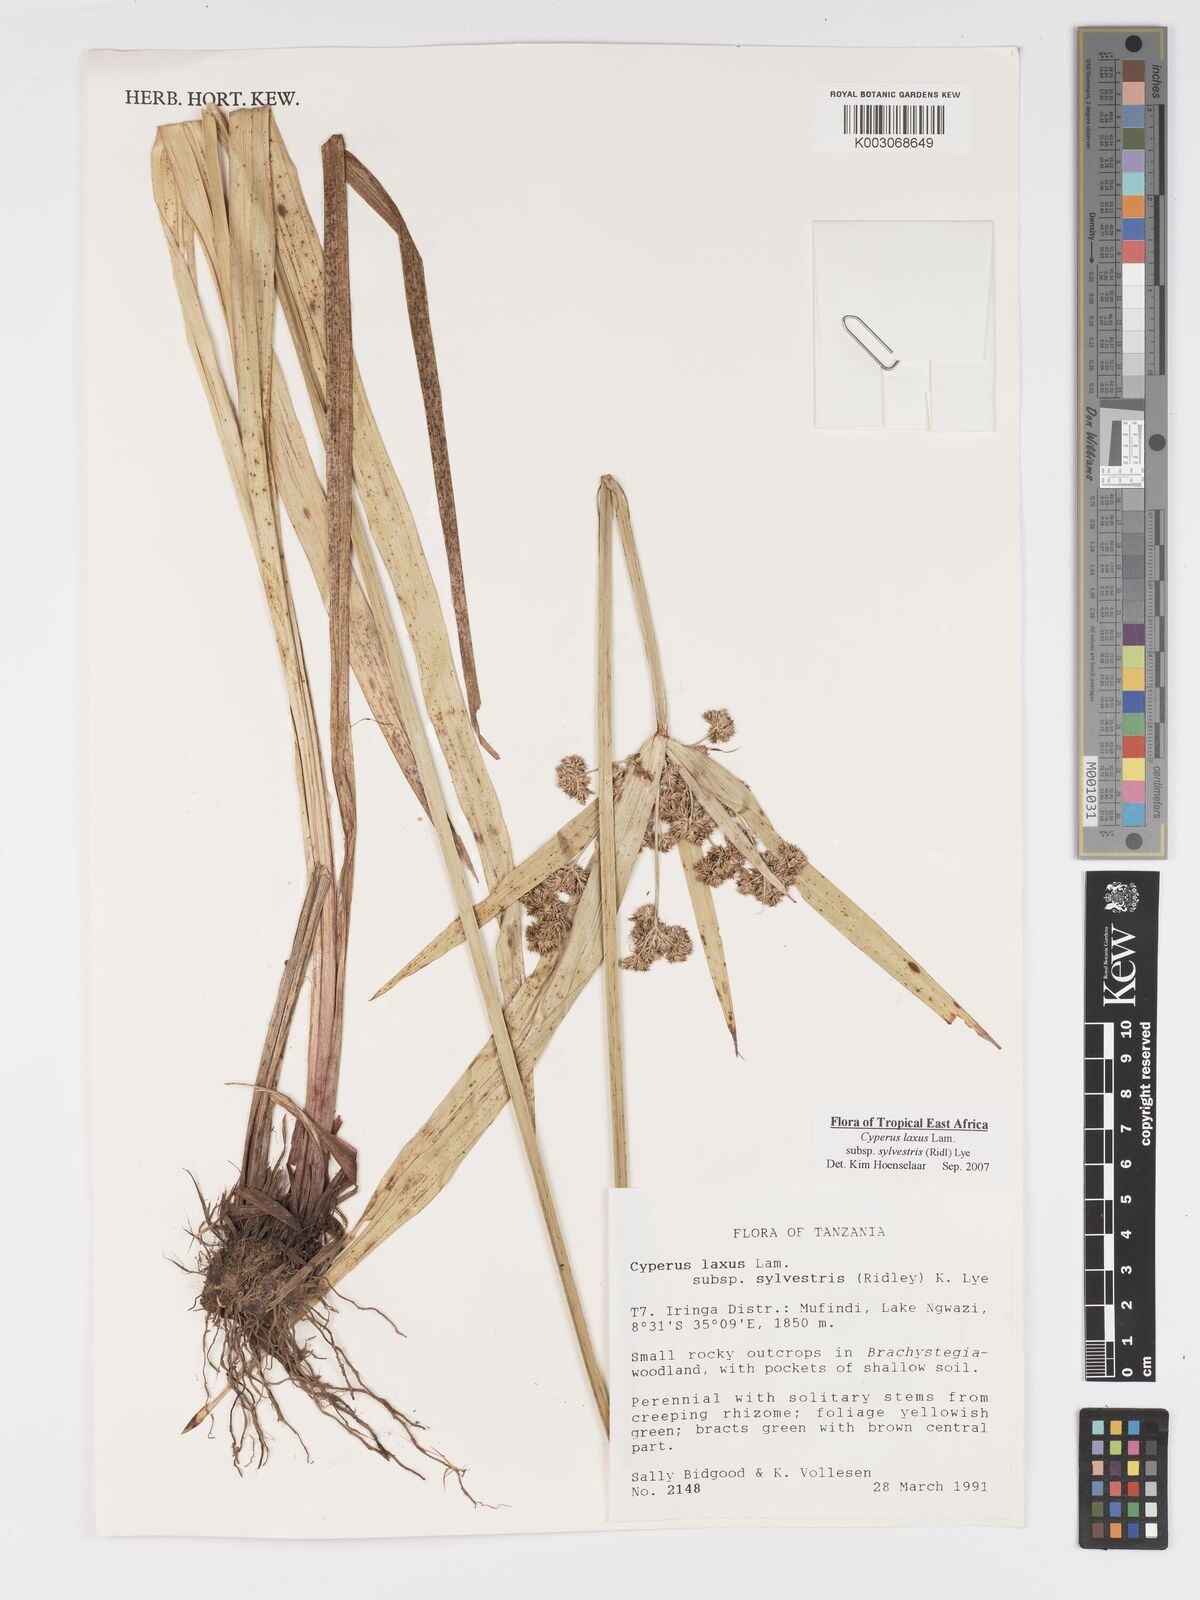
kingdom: Plantae
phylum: Tracheophyta
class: Liliopsida
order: Poales
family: Cyperaceae
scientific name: Cyperaceae
